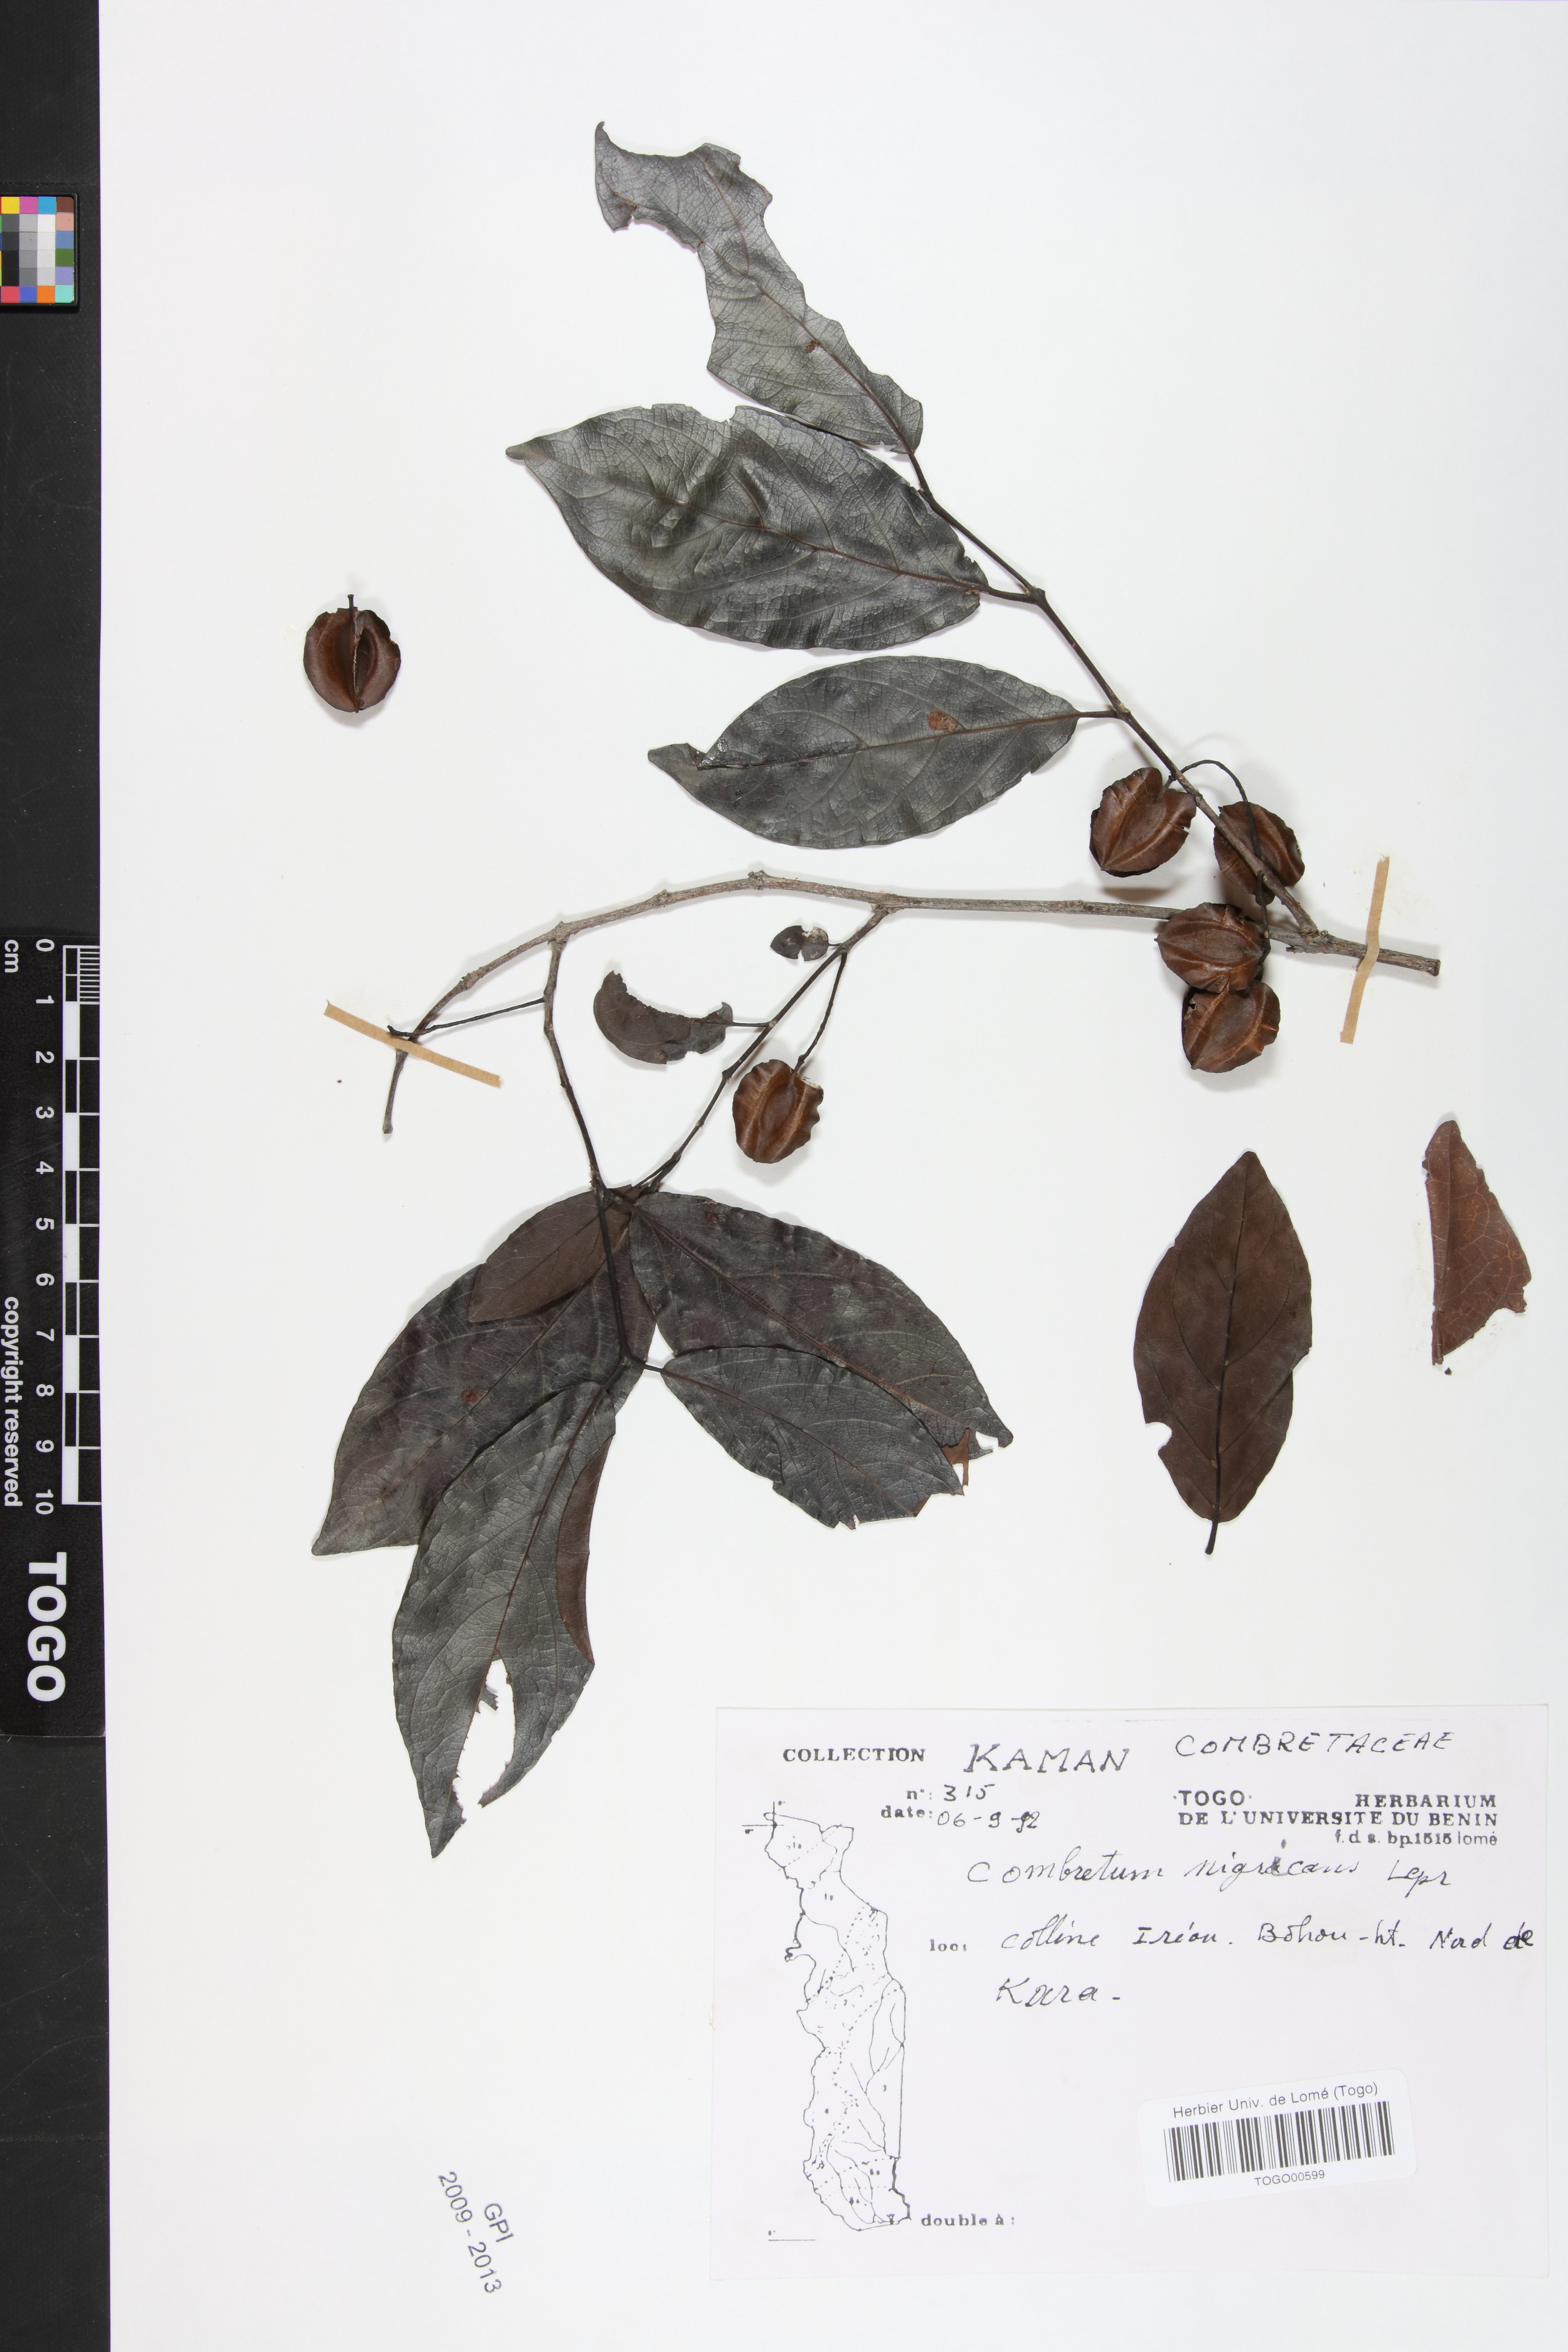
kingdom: Plantae
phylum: Tracheophyta
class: Magnoliopsida
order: Myrtales
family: Combretaceae
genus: Combretum
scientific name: Combretum nigricans
